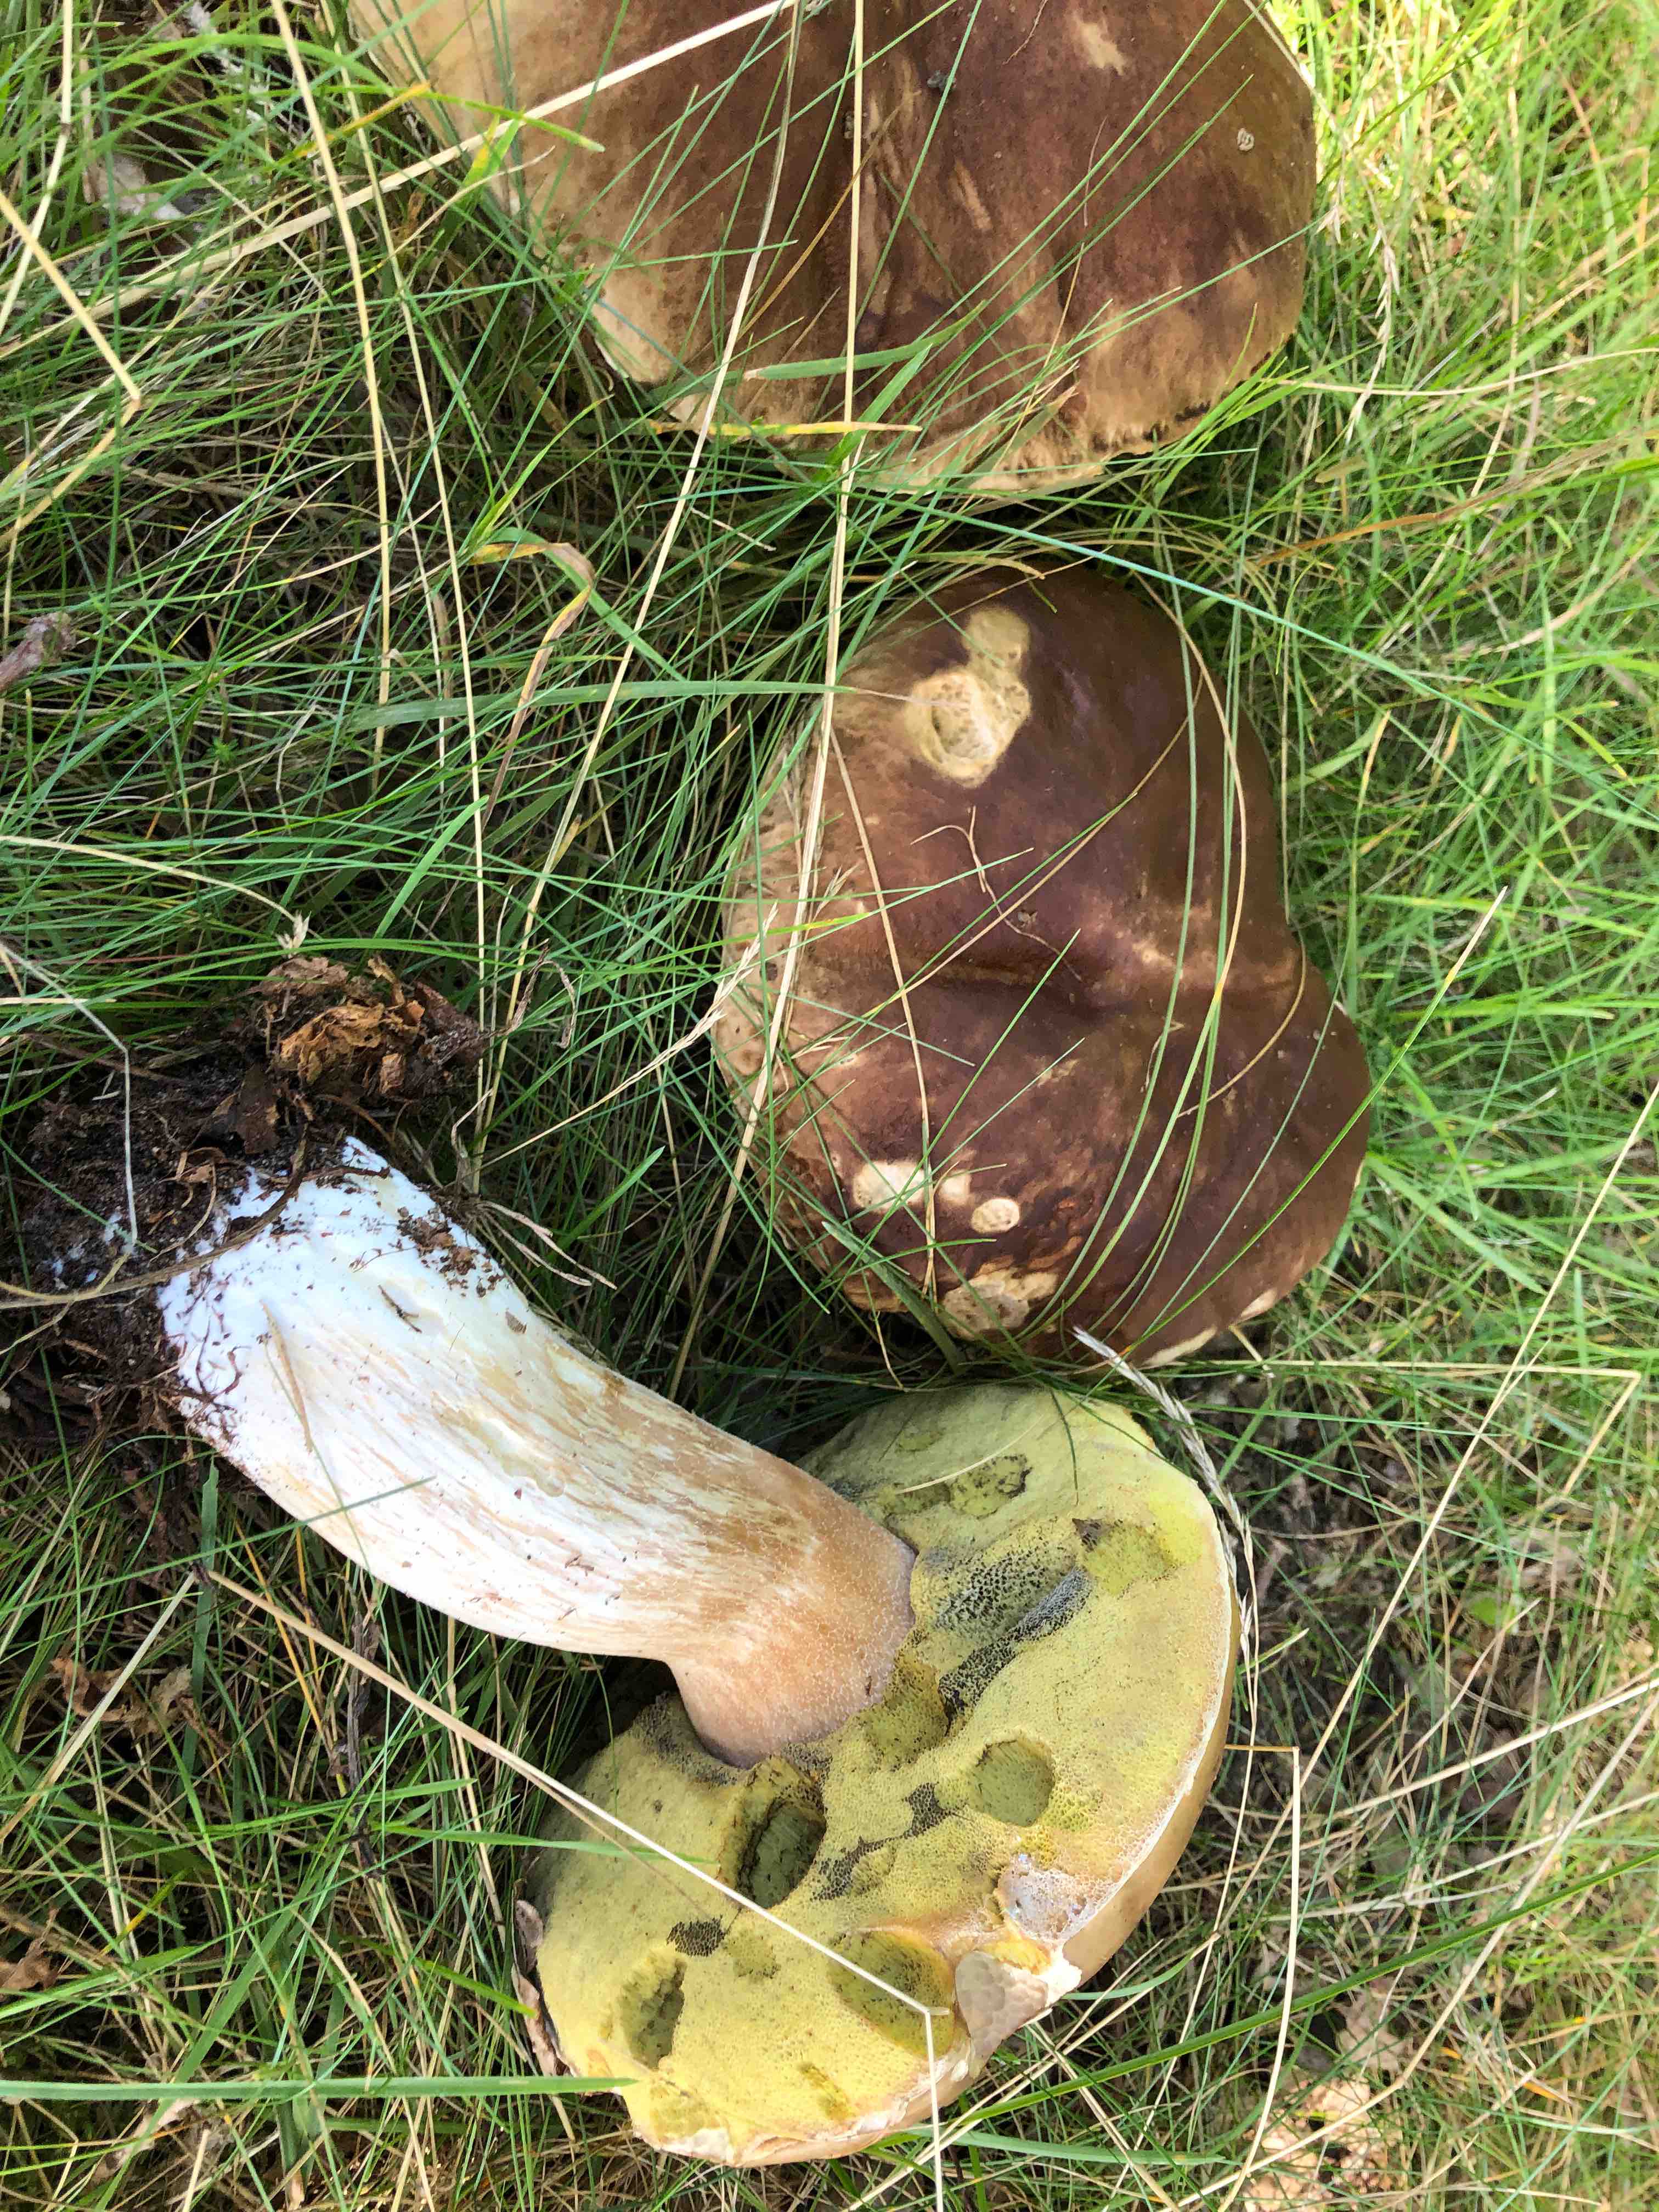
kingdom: Fungi
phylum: Basidiomycota
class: Agaricomycetes
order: Boletales
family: Boletaceae
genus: Boletus
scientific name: Boletus edulis
